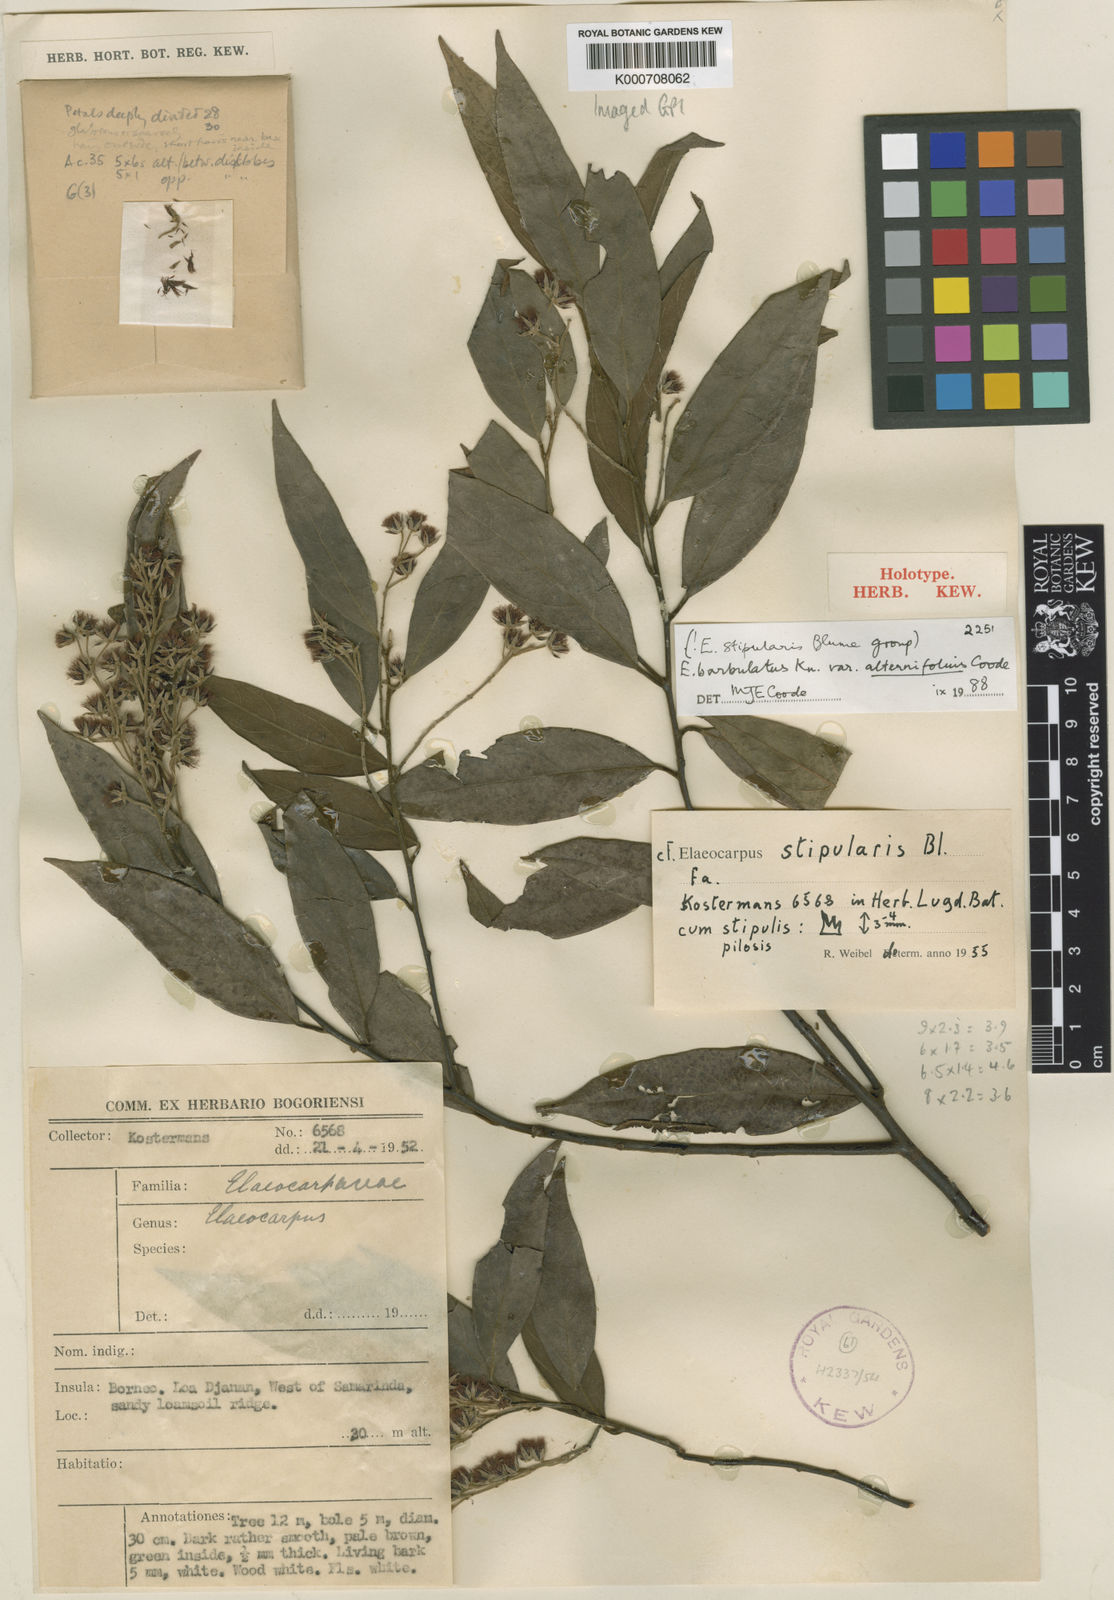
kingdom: Plantae
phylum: Tracheophyta
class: Magnoliopsida
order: Oxalidales
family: Elaeocarpaceae
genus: Elaeocarpus
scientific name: Elaeocarpus barbulatus
